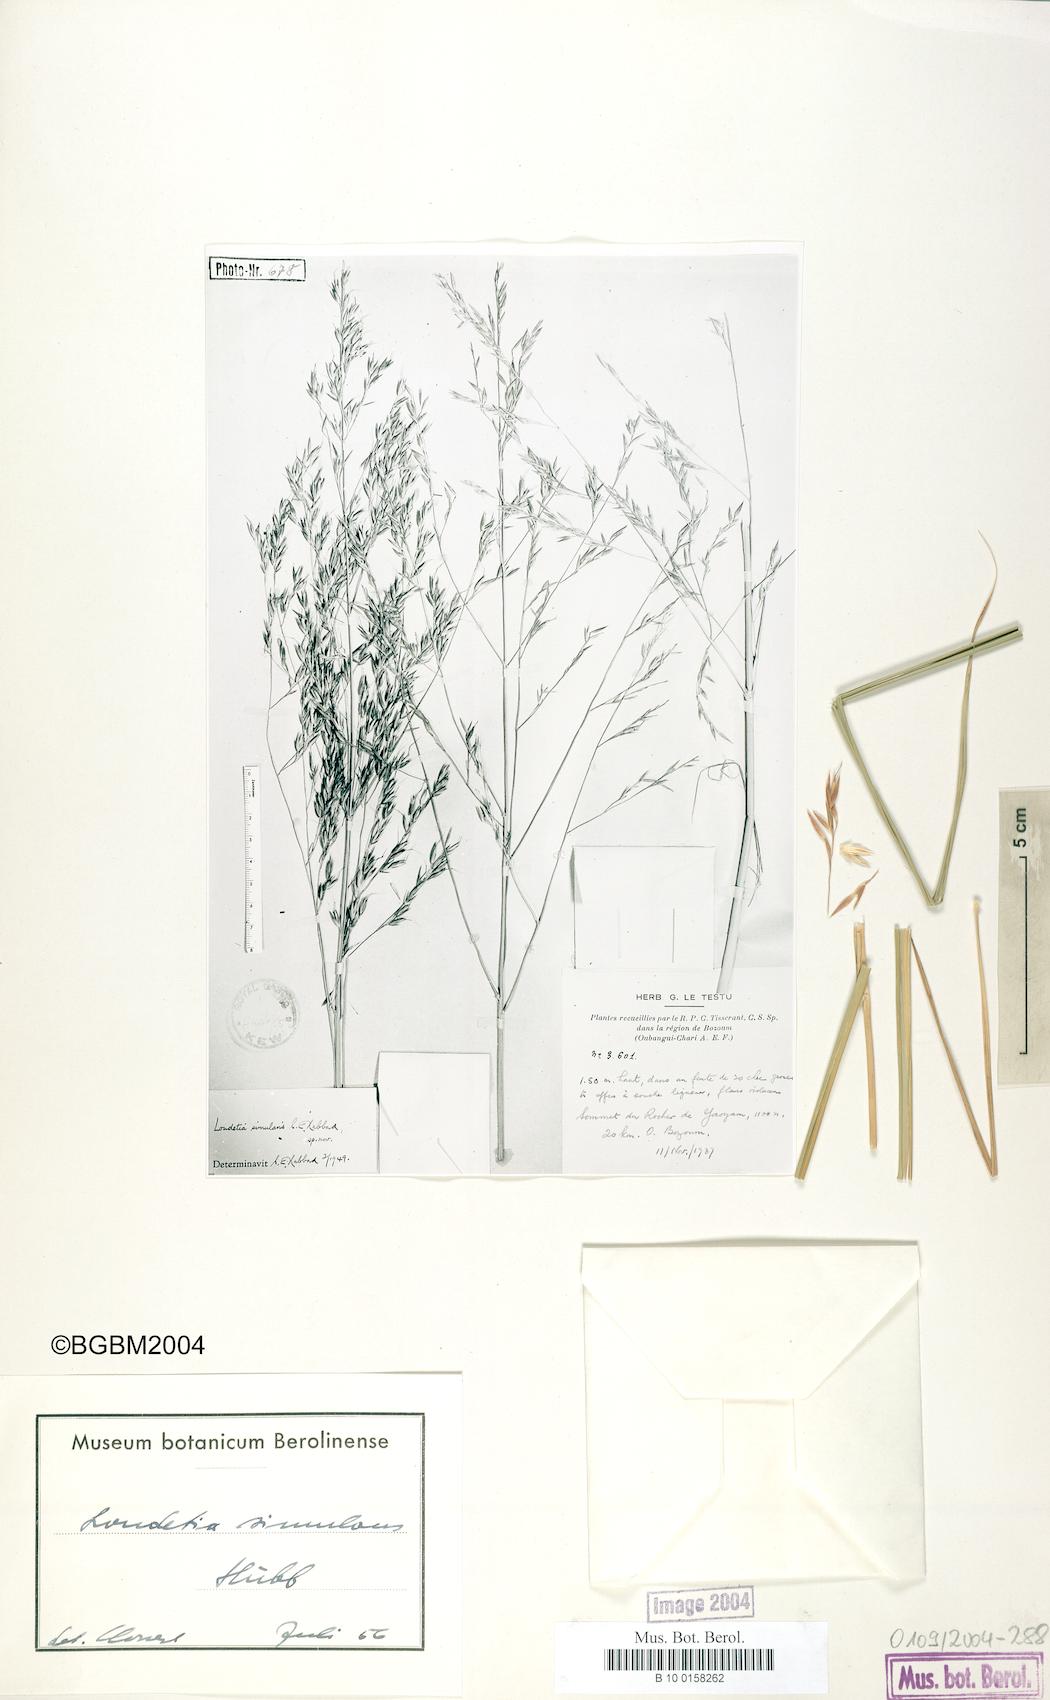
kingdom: Plantae
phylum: Tracheophyta
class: Liliopsida
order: Poales
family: Poaceae
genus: Danthoniopsis
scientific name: Danthoniopsis simulans
